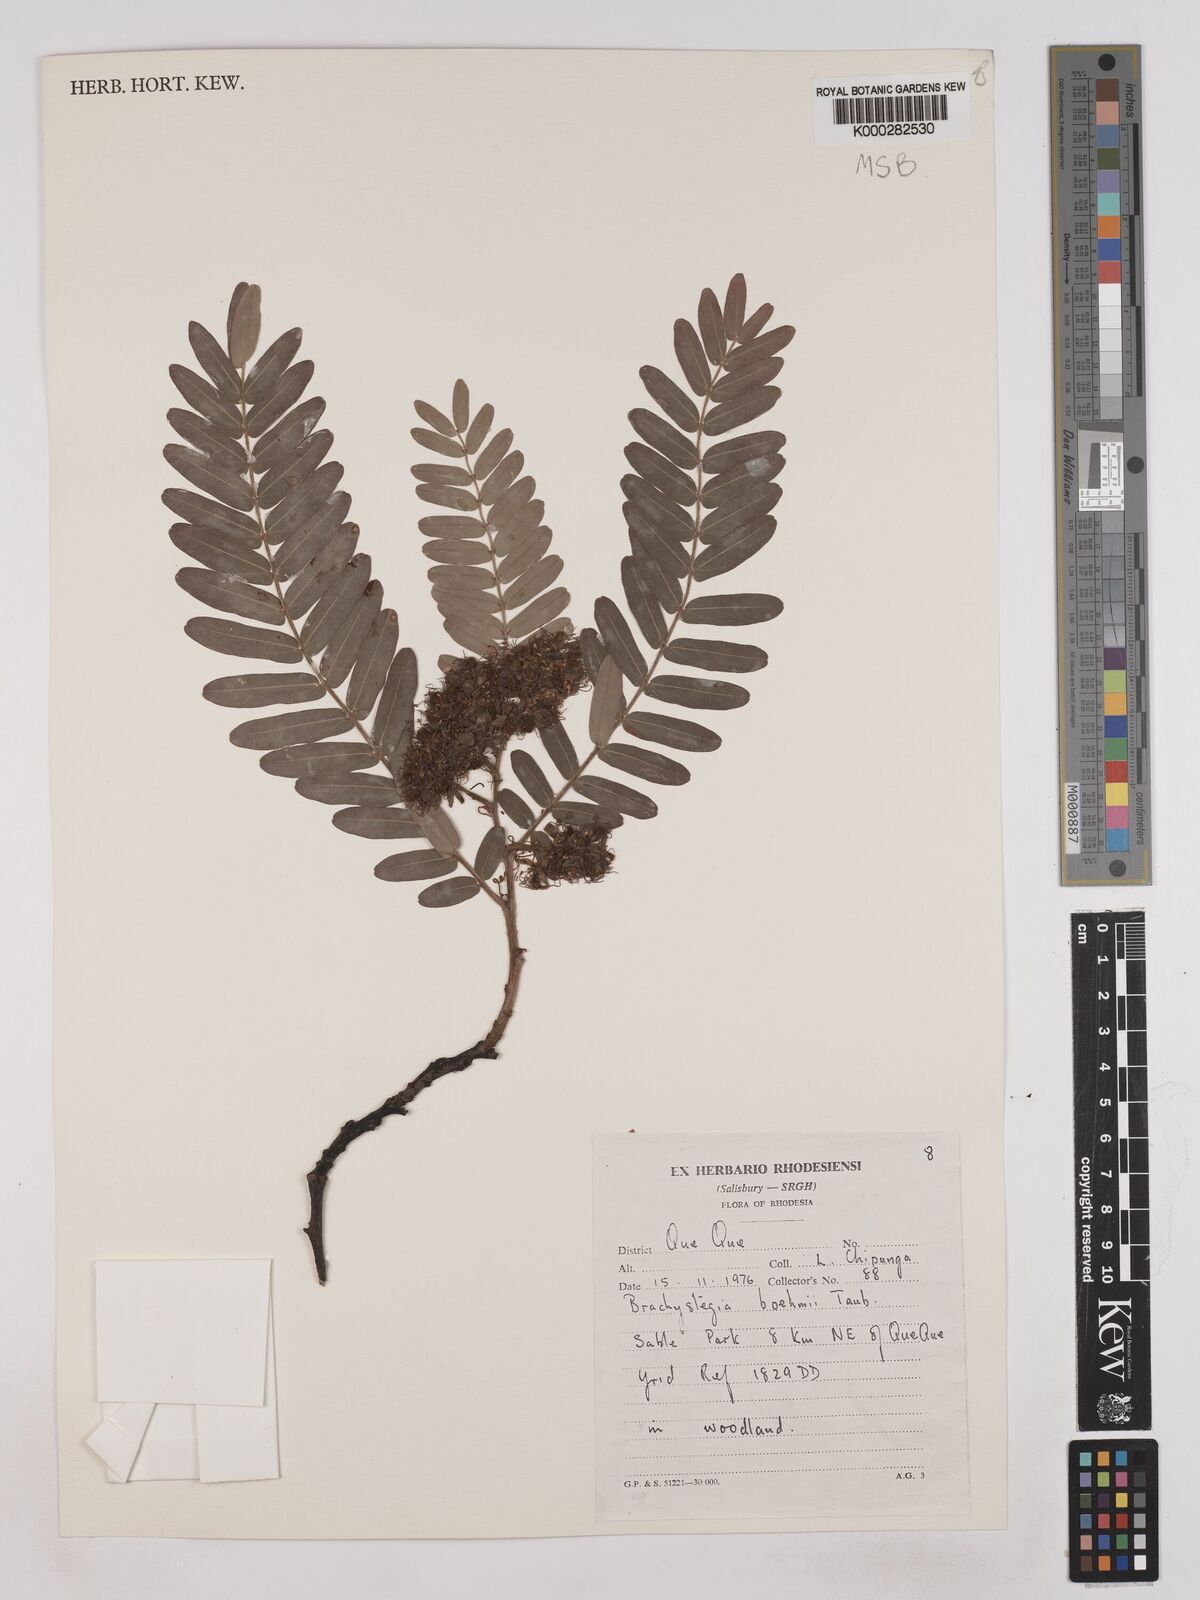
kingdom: Plantae
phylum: Tracheophyta
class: Magnoliopsida
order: Fabales
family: Fabaceae
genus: Brachystegia
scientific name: Brachystegia boehmii
